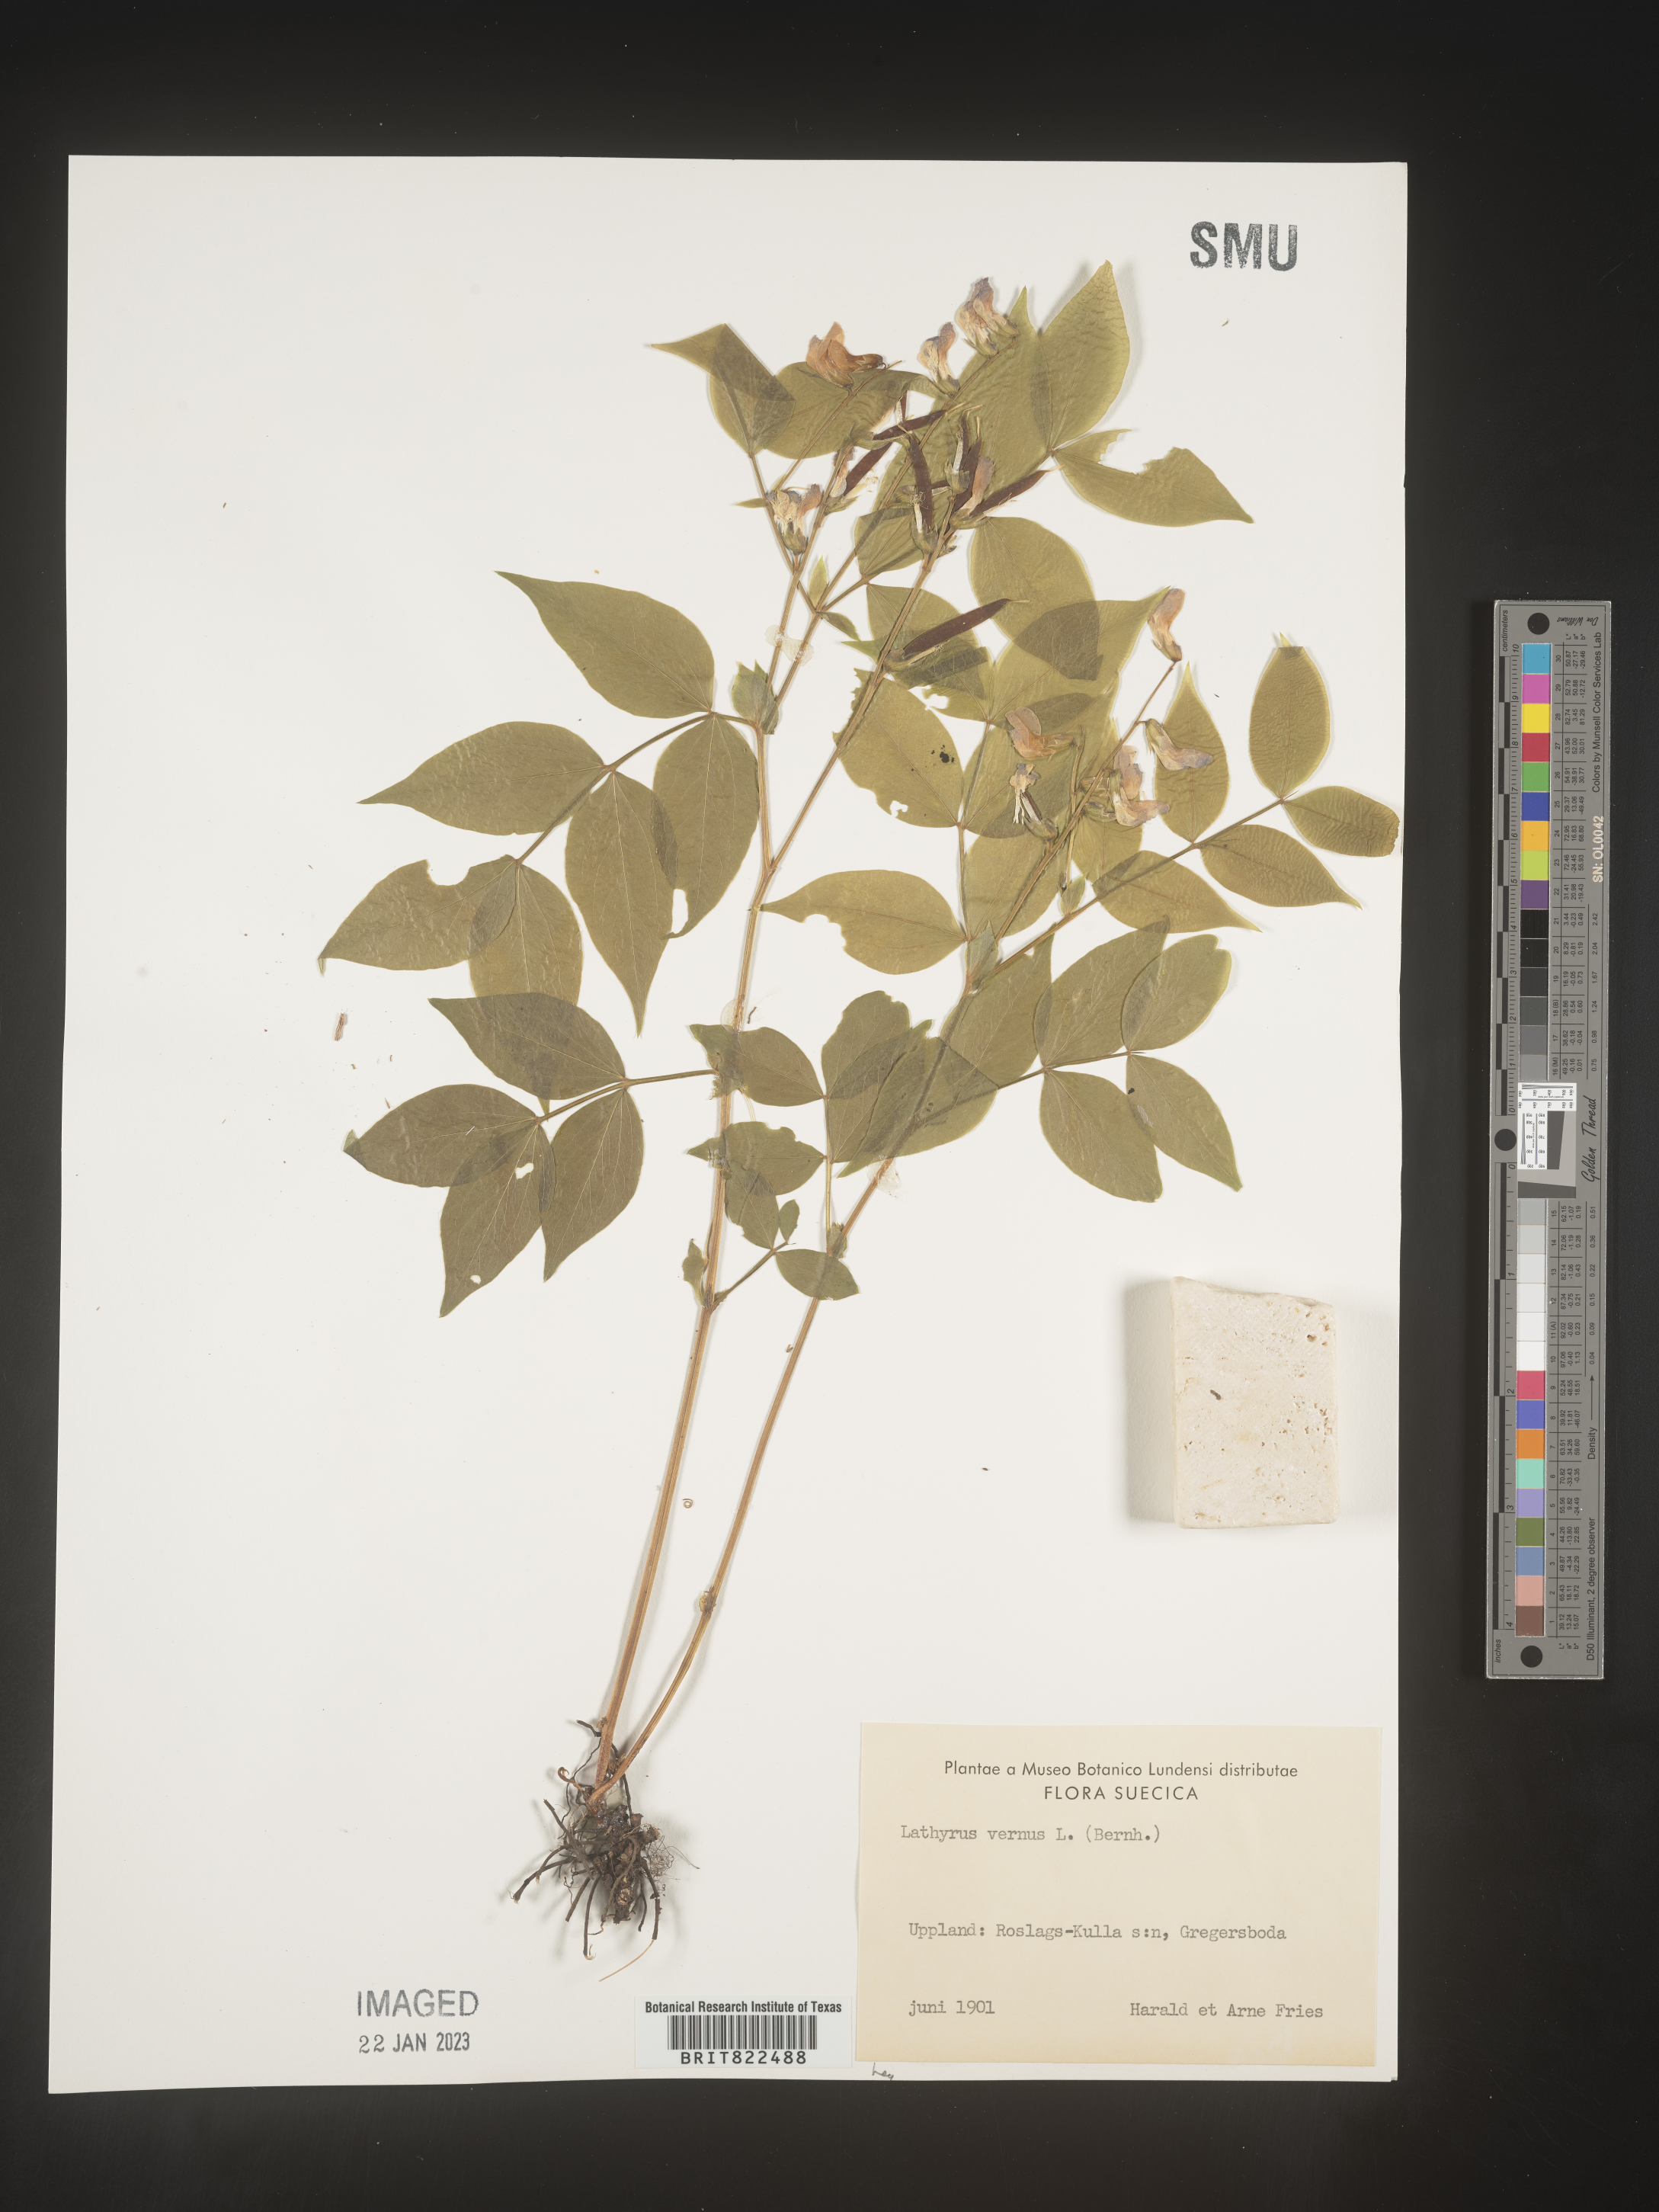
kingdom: Plantae
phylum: Tracheophyta
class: Magnoliopsida
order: Fabales
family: Fabaceae
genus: Lathyrus
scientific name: Lathyrus
